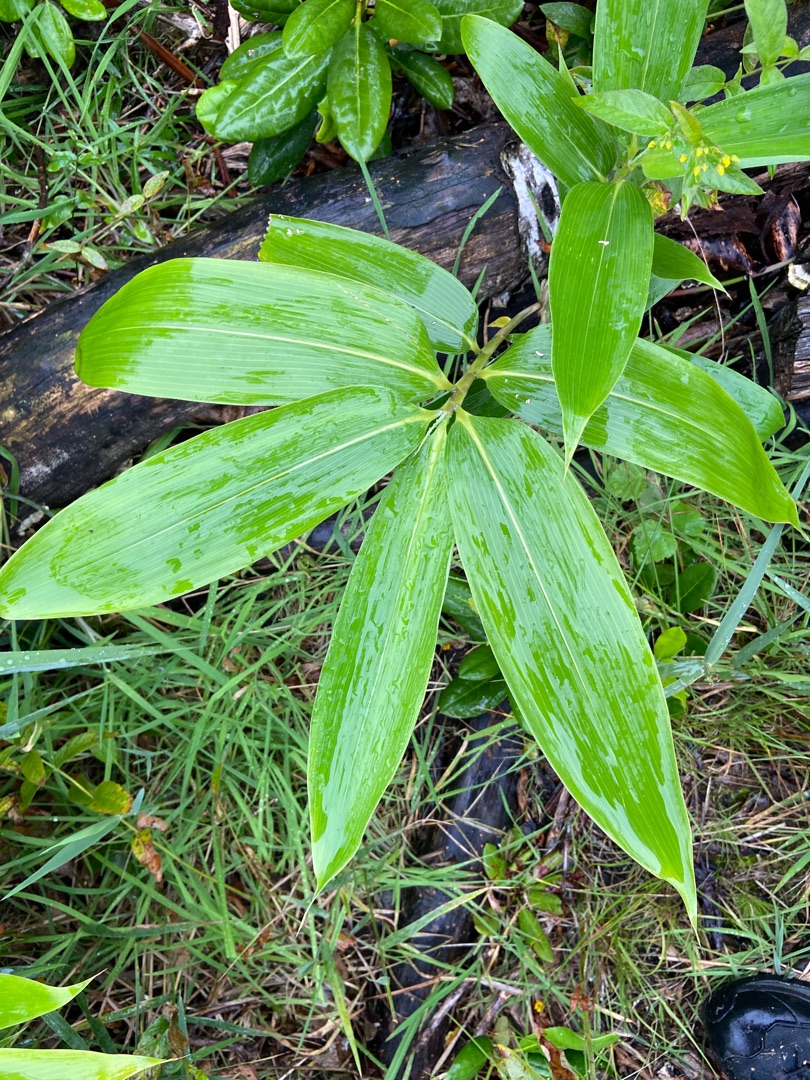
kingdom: Plantae
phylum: Tracheophyta
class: Liliopsida
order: Poales
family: Poaceae
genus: Sasa
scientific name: Sasa palmata
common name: Palmebladet bambus
